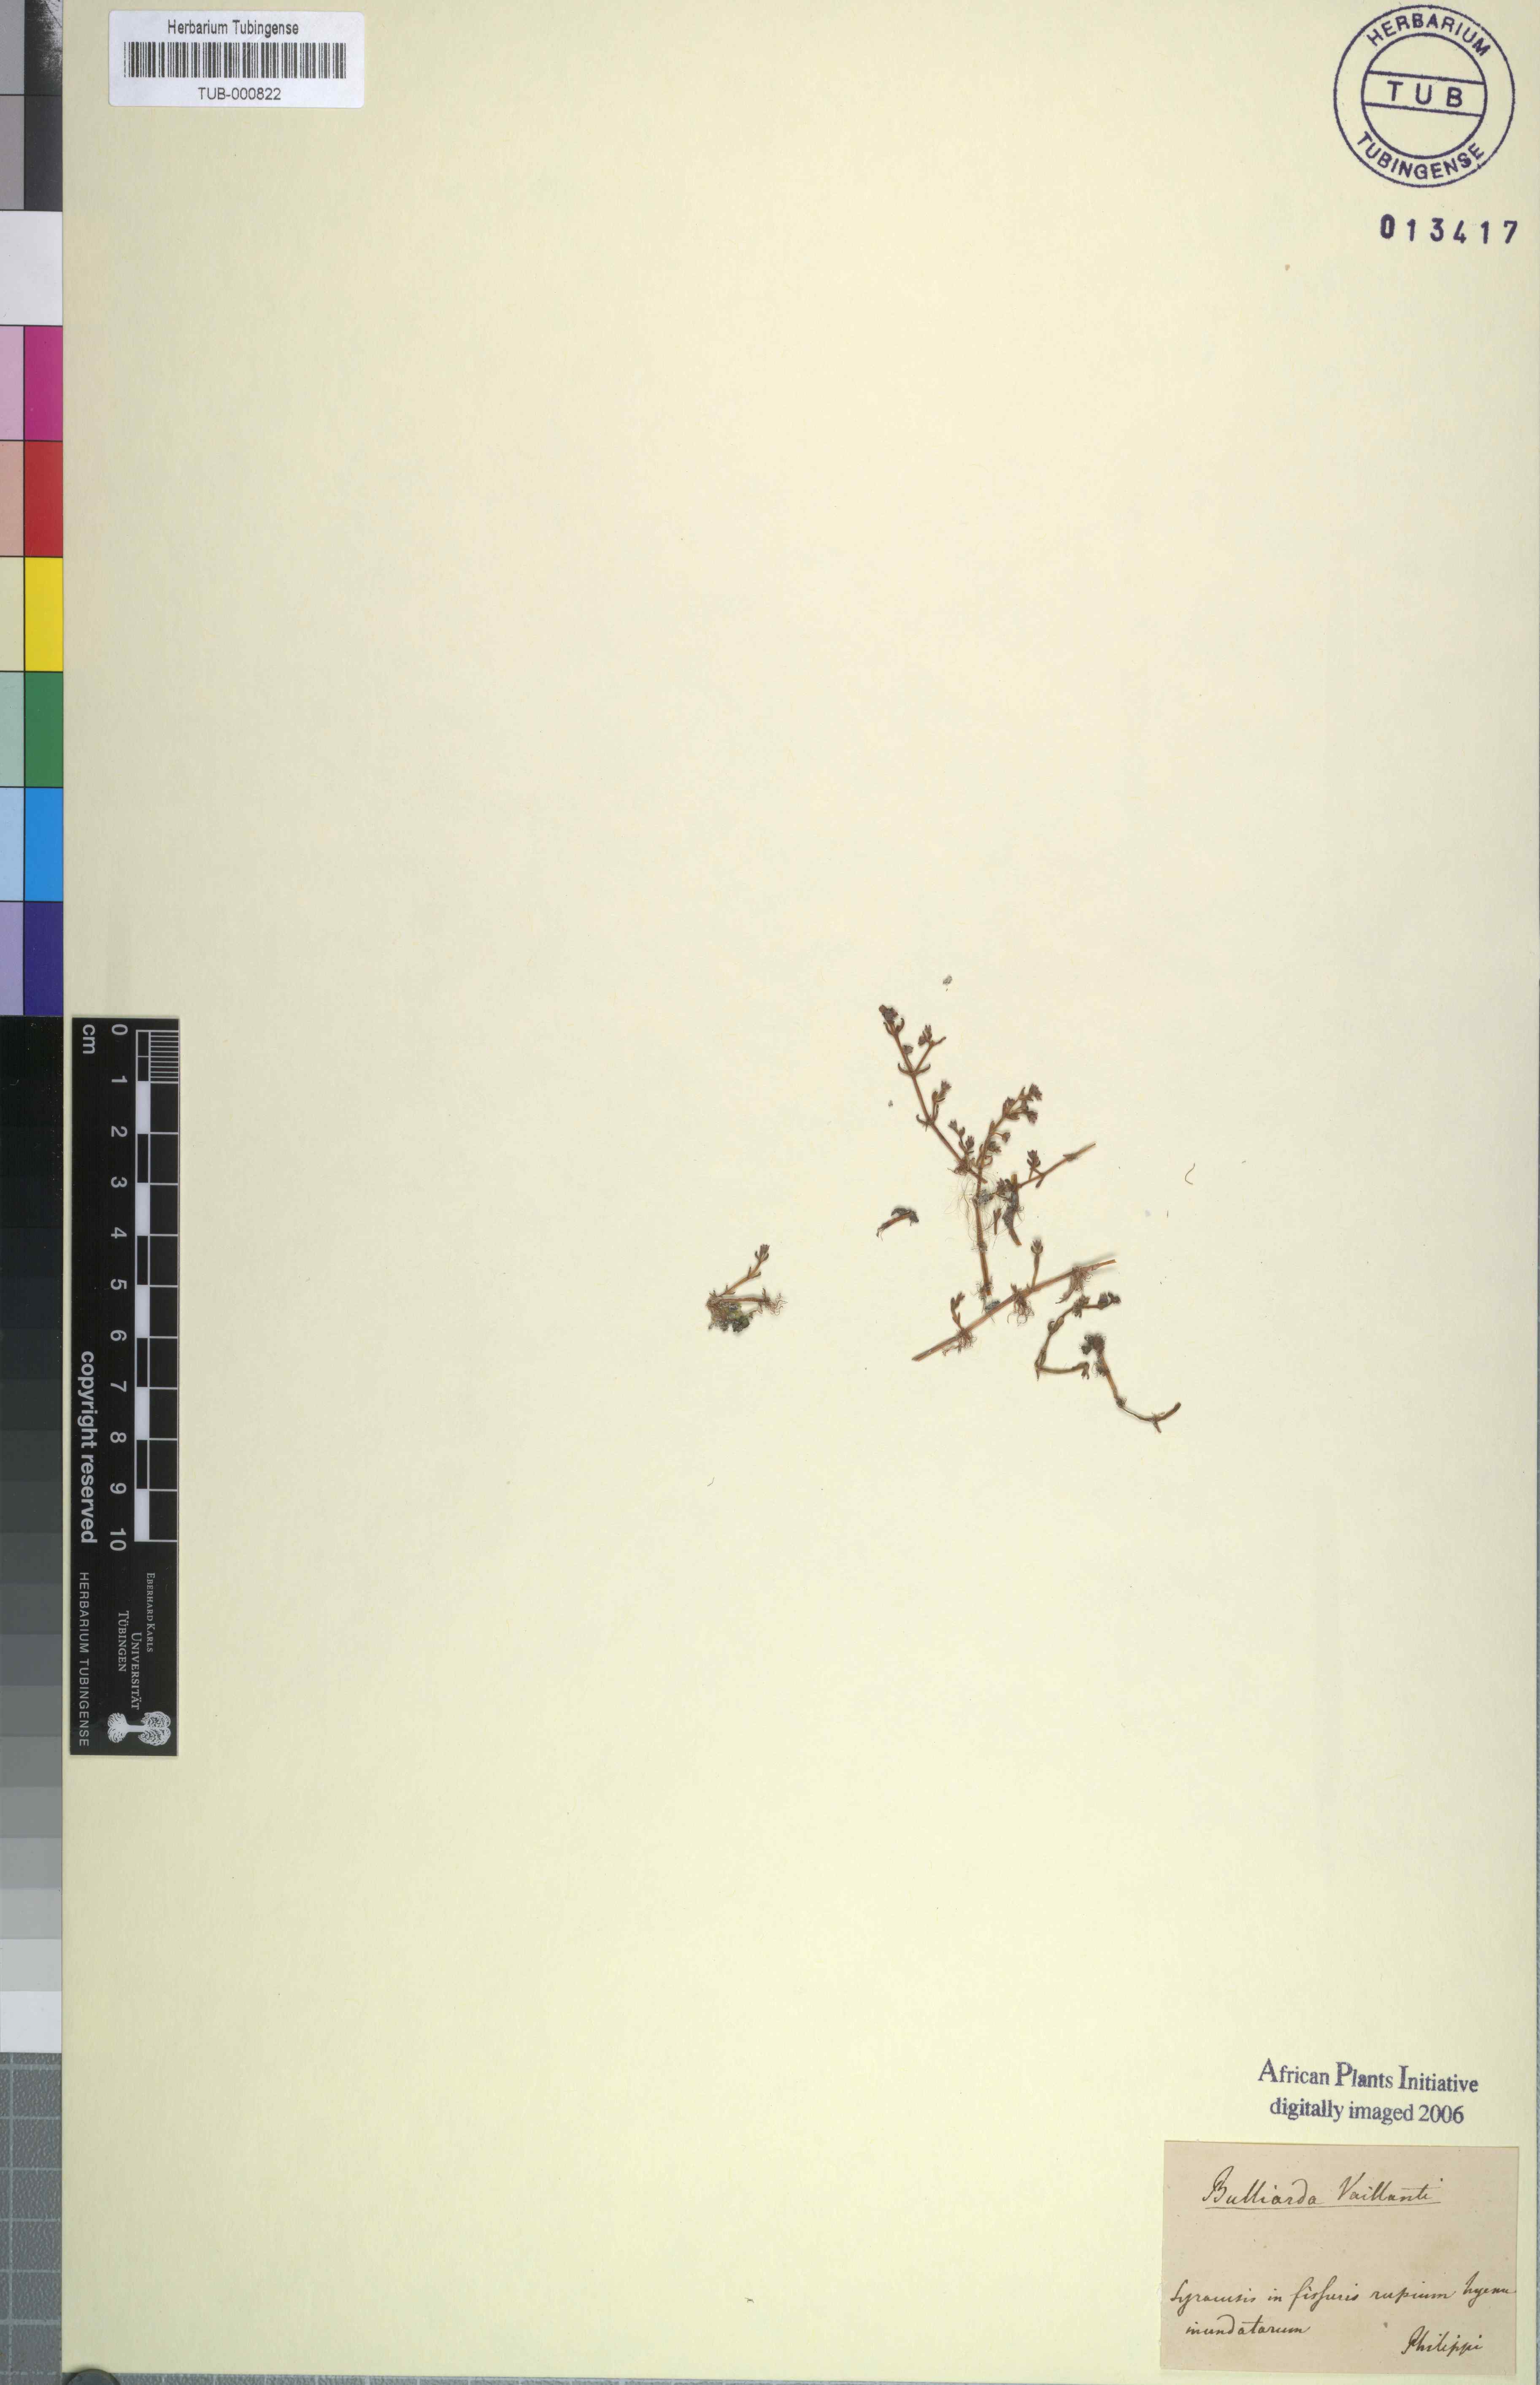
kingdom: Plantae
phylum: Tracheophyta
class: Magnoliopsida
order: Saxifragales
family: Crassulaceae
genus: Crassula
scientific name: Crassula vaillantii
